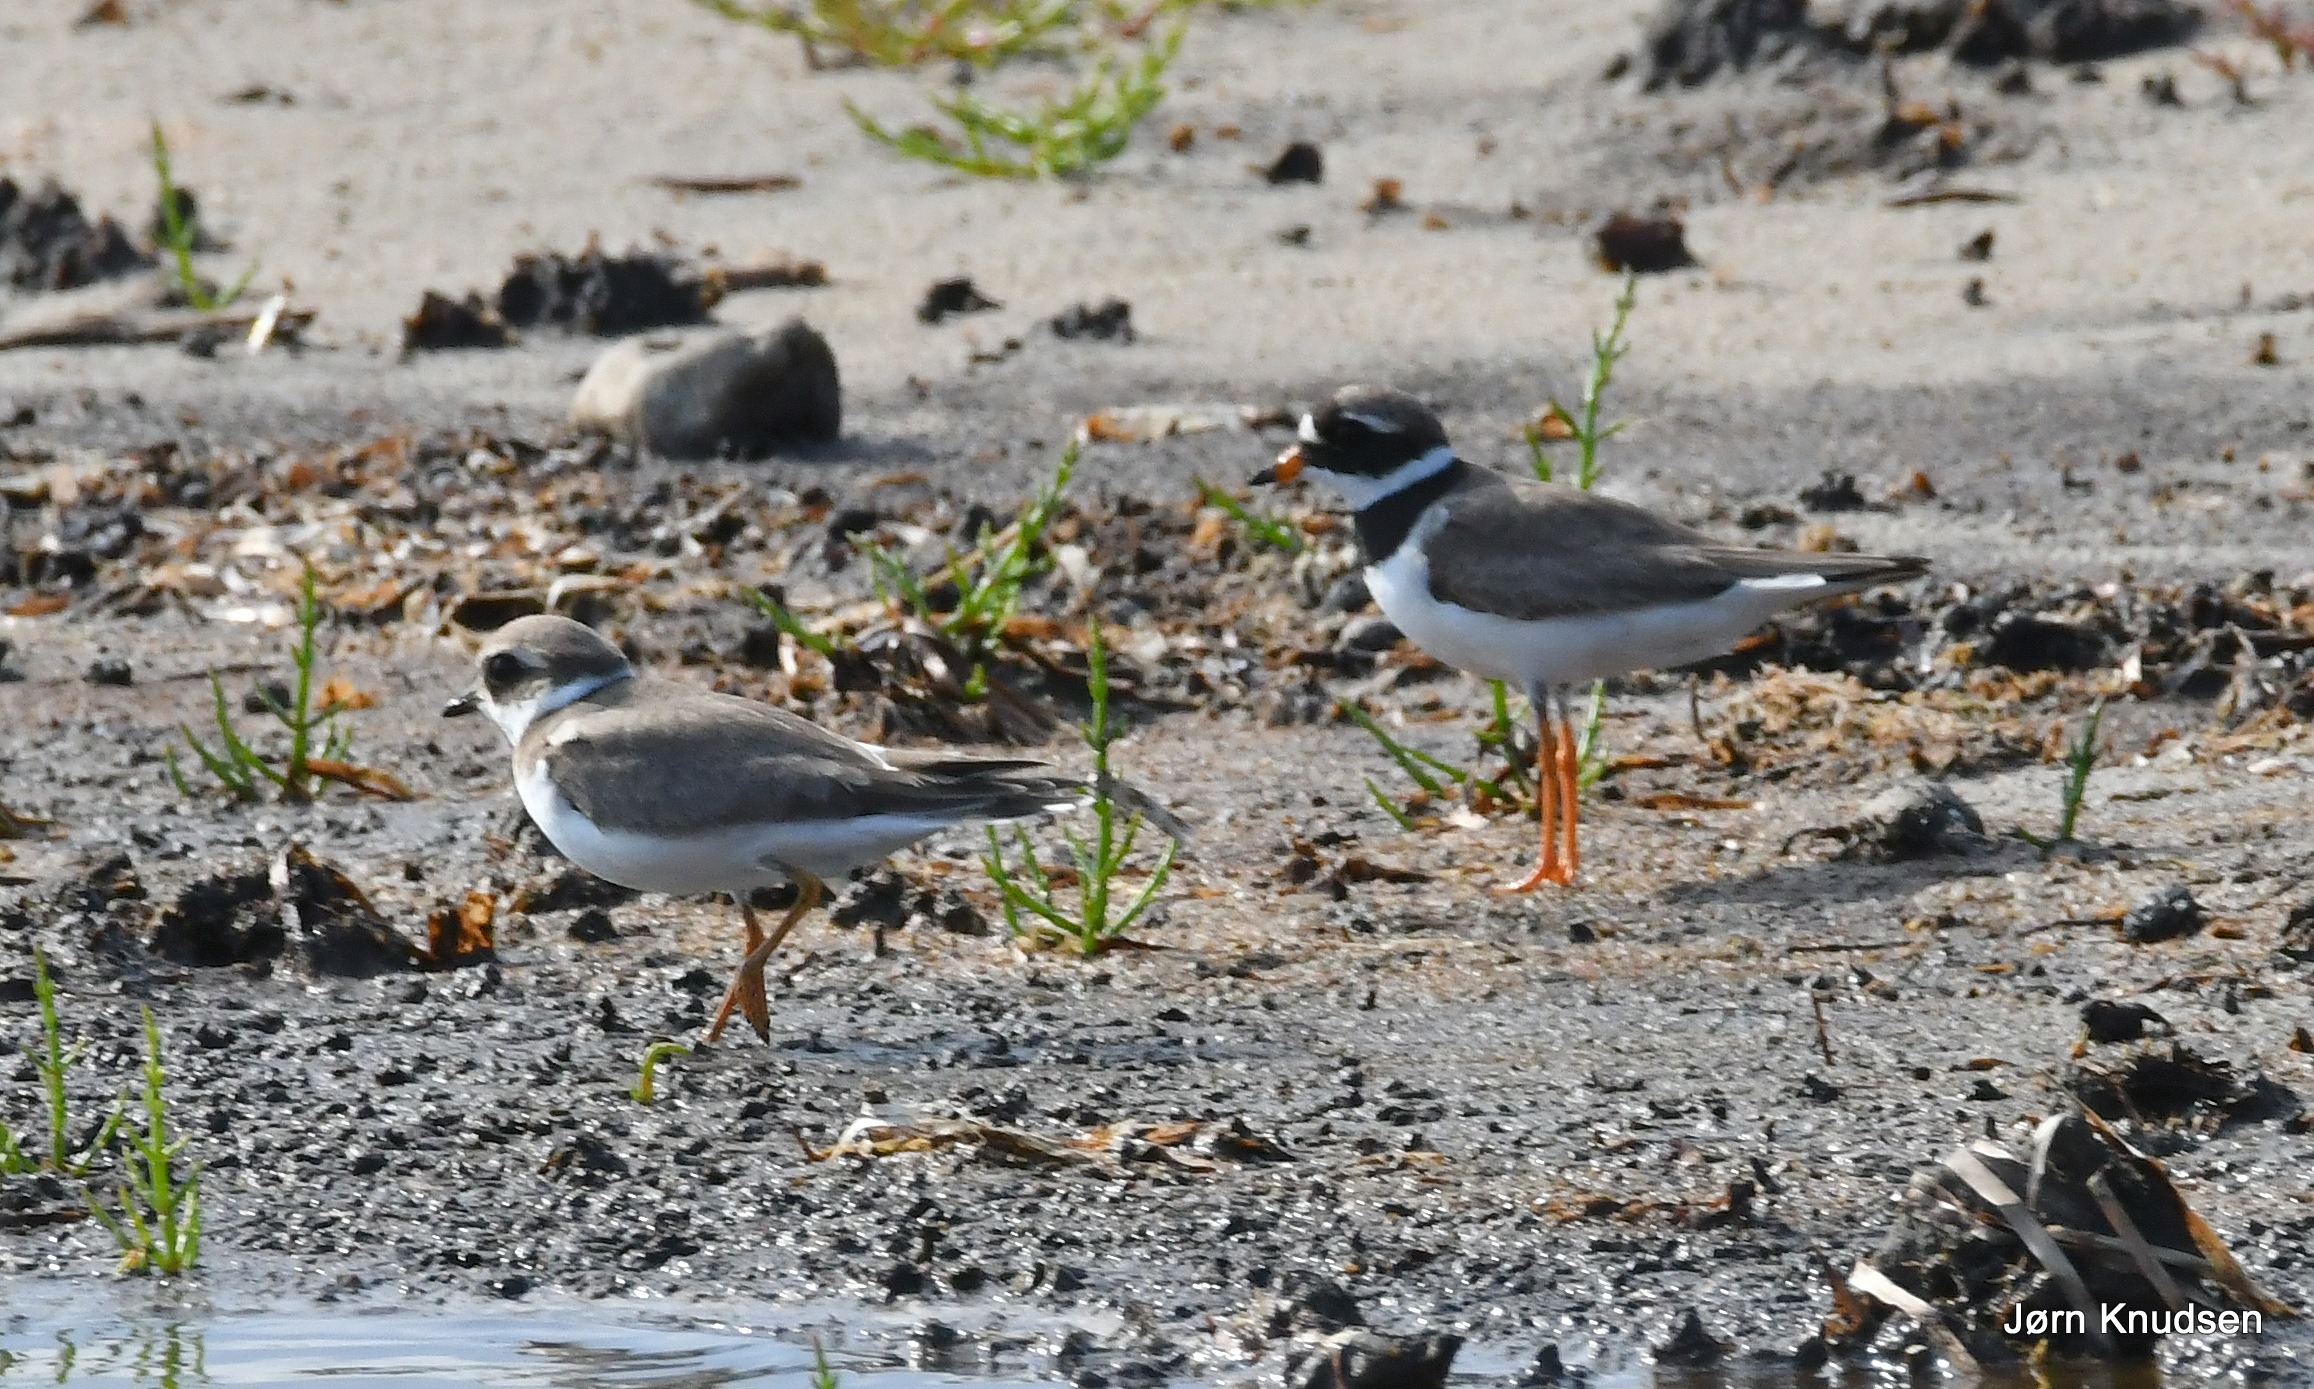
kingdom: Animalia
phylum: Chordata
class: Aves
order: Charadriiformes
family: Charadriidae
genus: Charadrius
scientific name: Charadrius hiaticula
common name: Stor præstekrave
